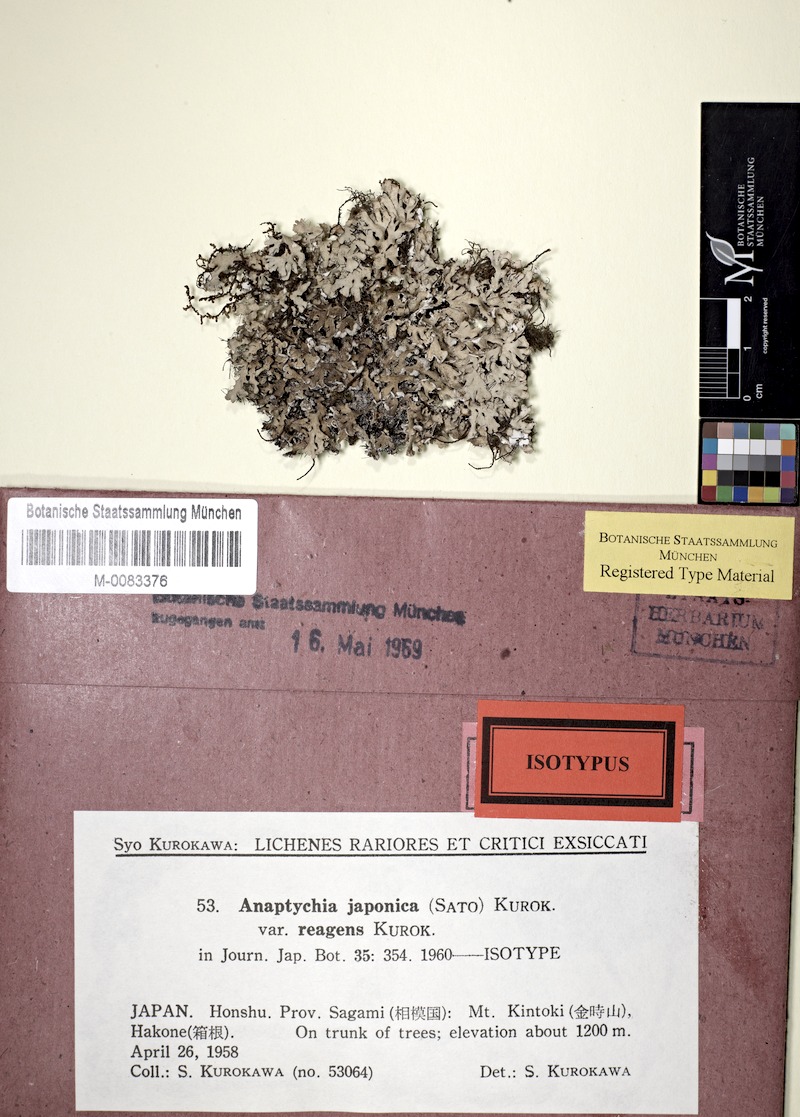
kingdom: Fungi
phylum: Ascomycota
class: Lecanoromycetes
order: Caliciales
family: Physciaceae
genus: Polyblastidium
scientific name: Polyblastidium propaguliferum
